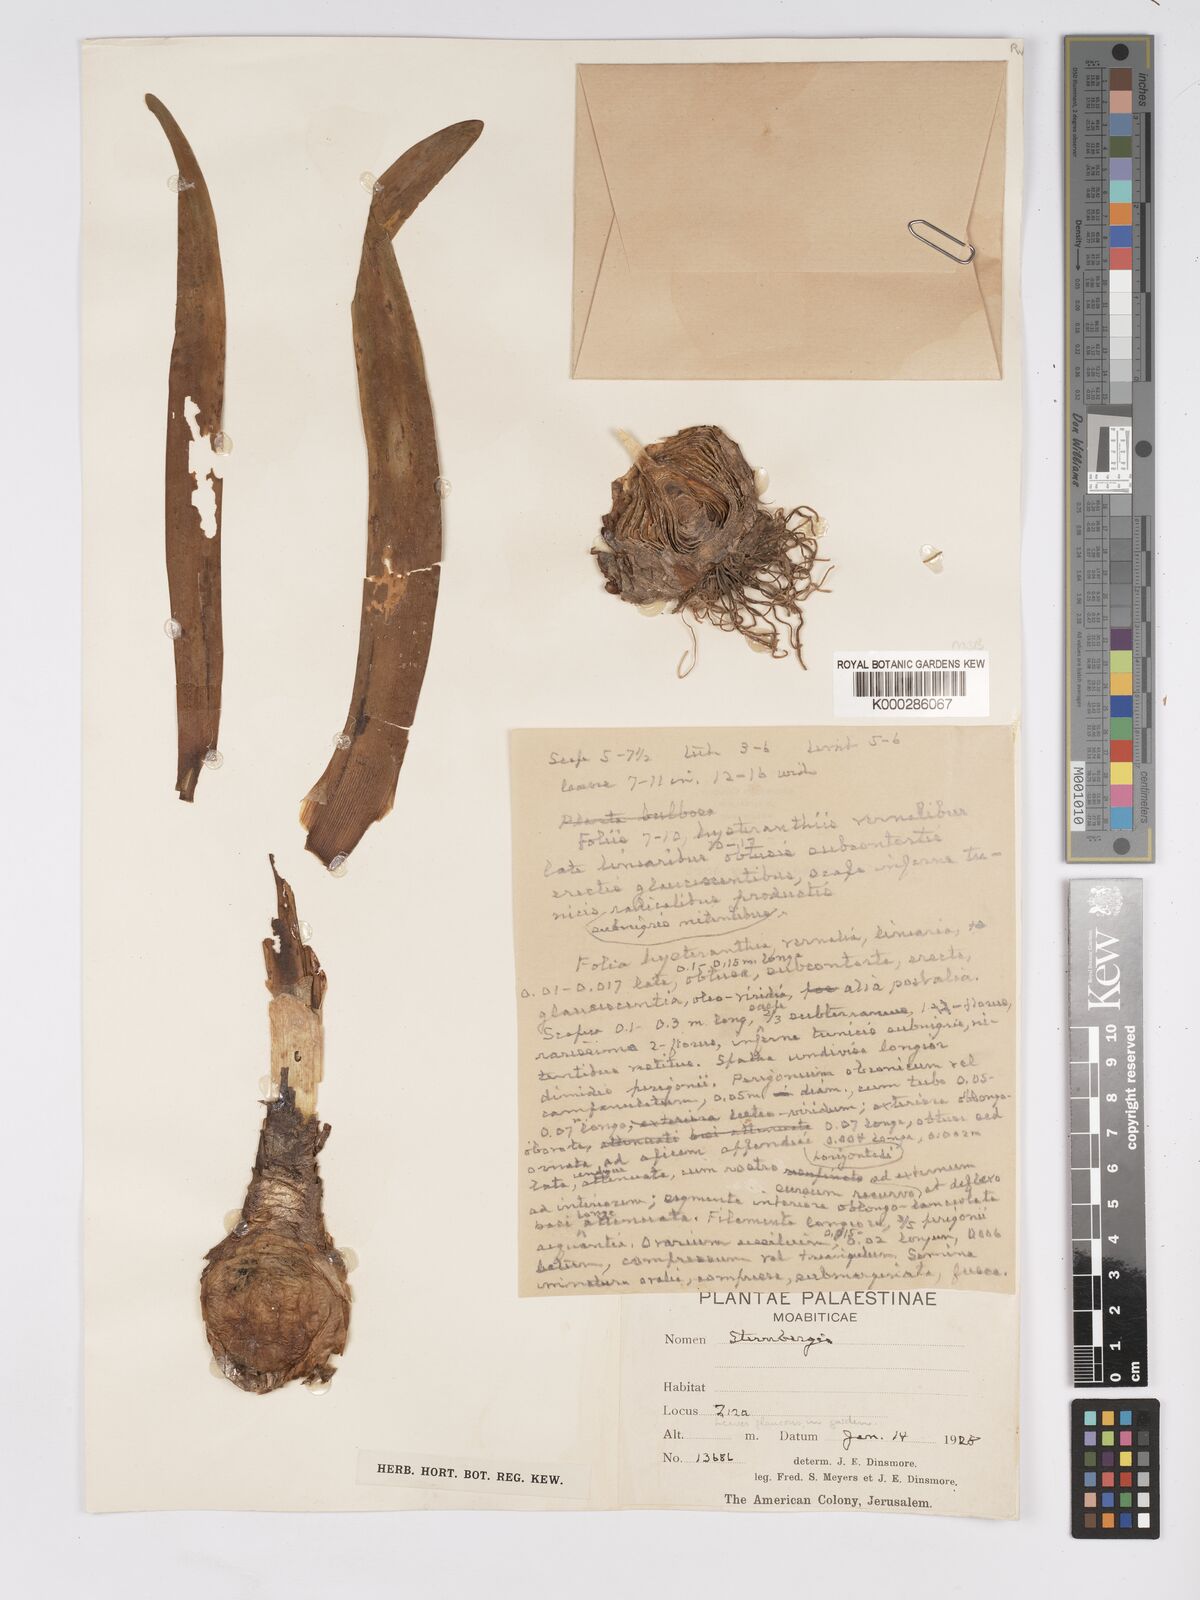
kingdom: Plantae
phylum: Tracheophyta
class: Liliopsida
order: Asparagales
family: Amaryllidaceae
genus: Sternbergia
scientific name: Sternbergia clusiana
